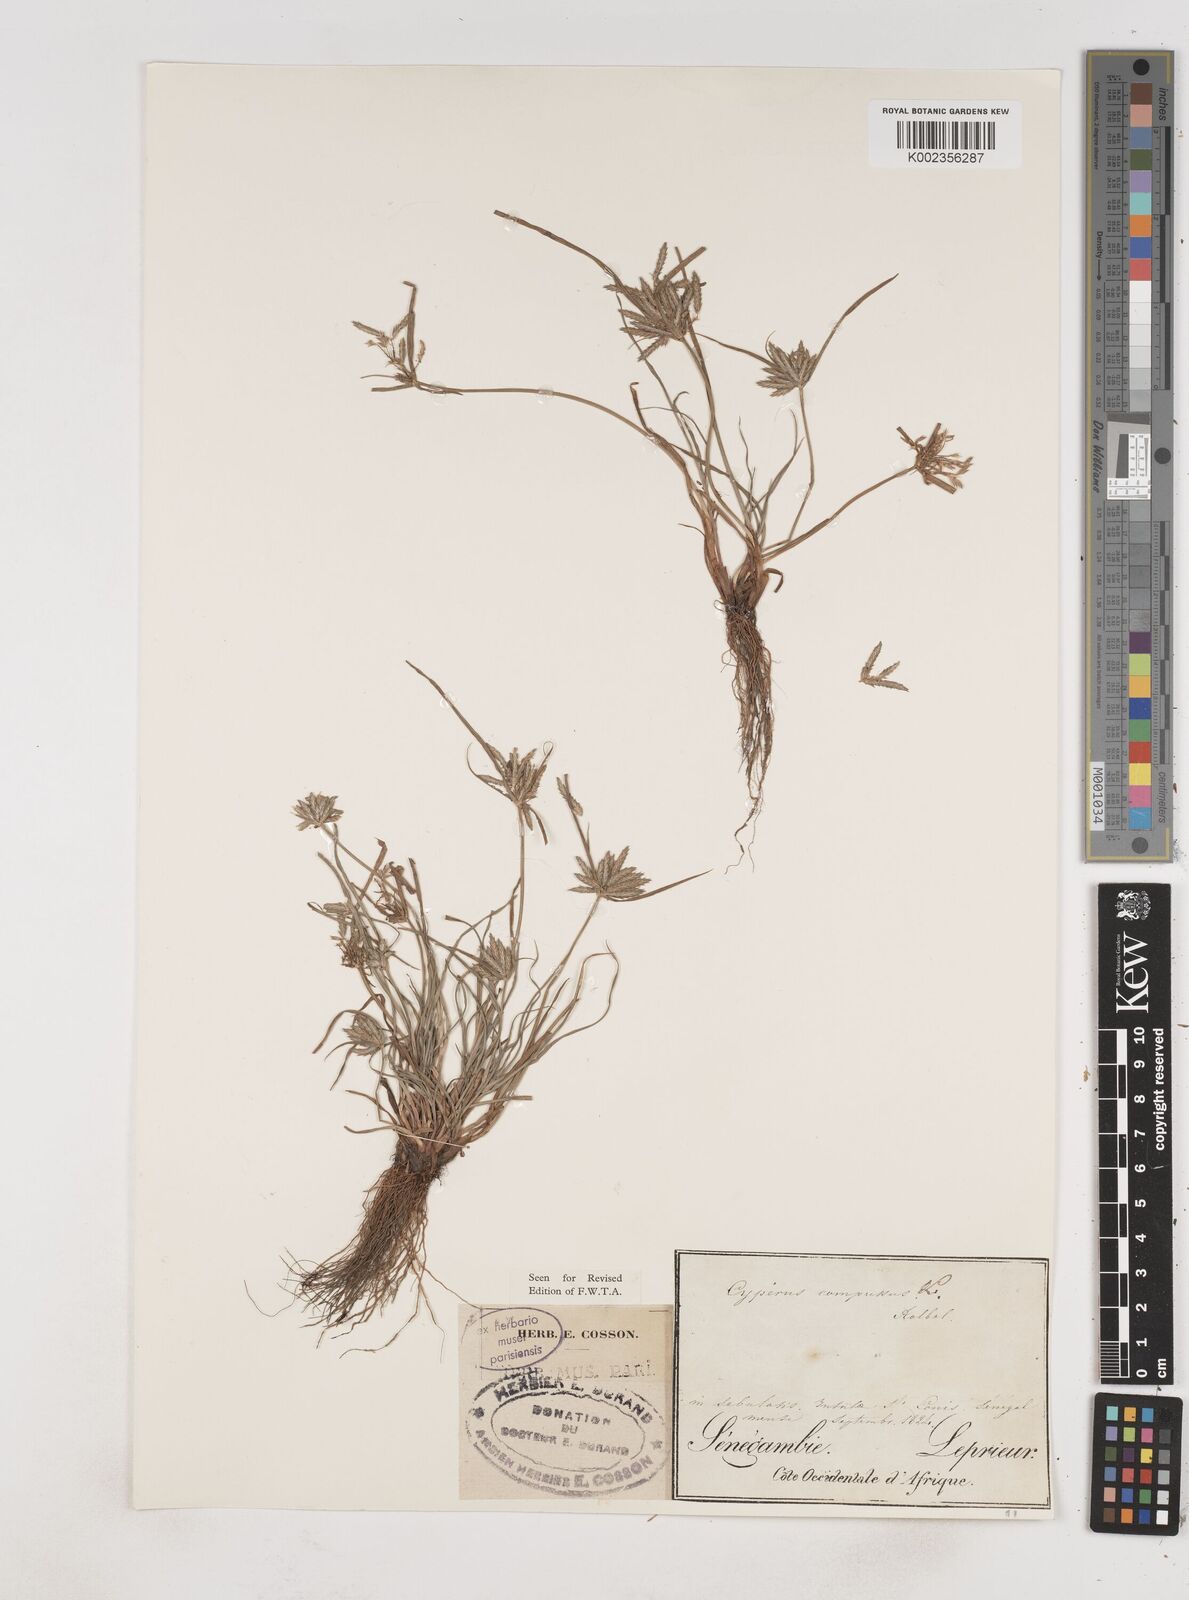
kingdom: Plantae
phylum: Tracheophyta
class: Liliopsida
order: Poales
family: Cyperaceae
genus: Cyperus
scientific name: Cyperus compressus
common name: Poorland flatsedge
